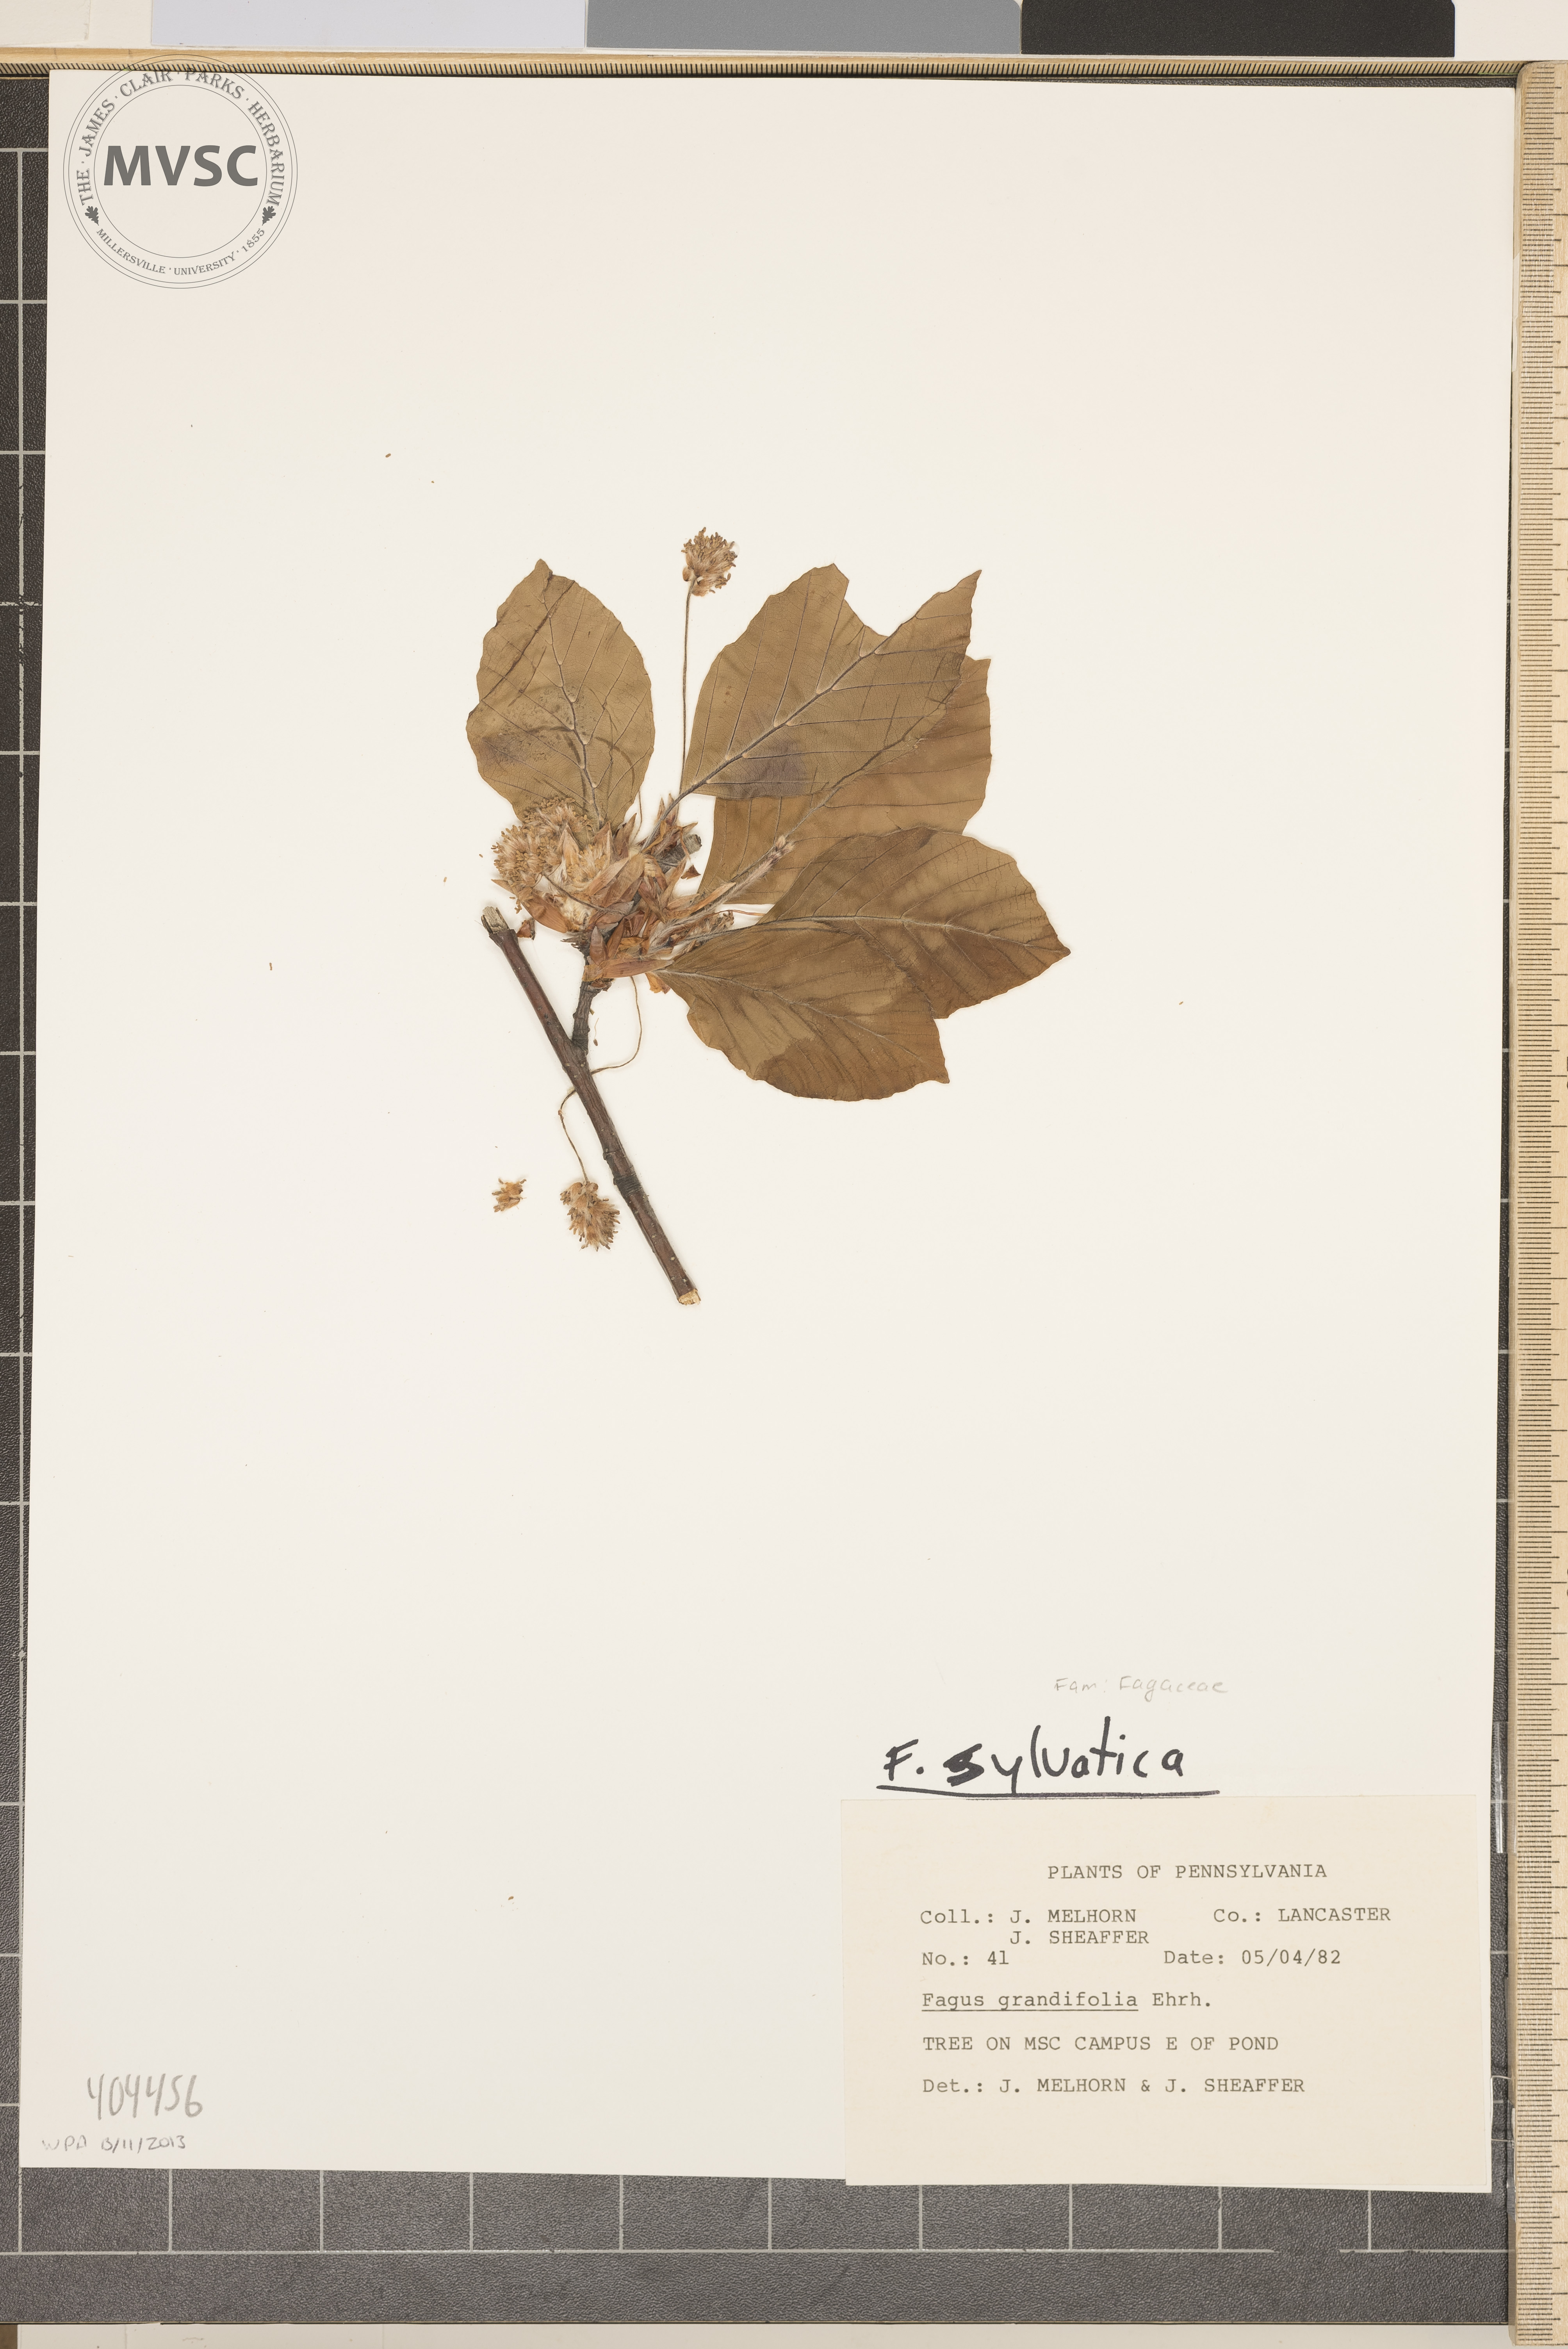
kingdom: Plantae
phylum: Tracheophyta
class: Magnoliopsida
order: Fagales
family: Fagaceae
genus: Fagus
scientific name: Fagus sylvatica
